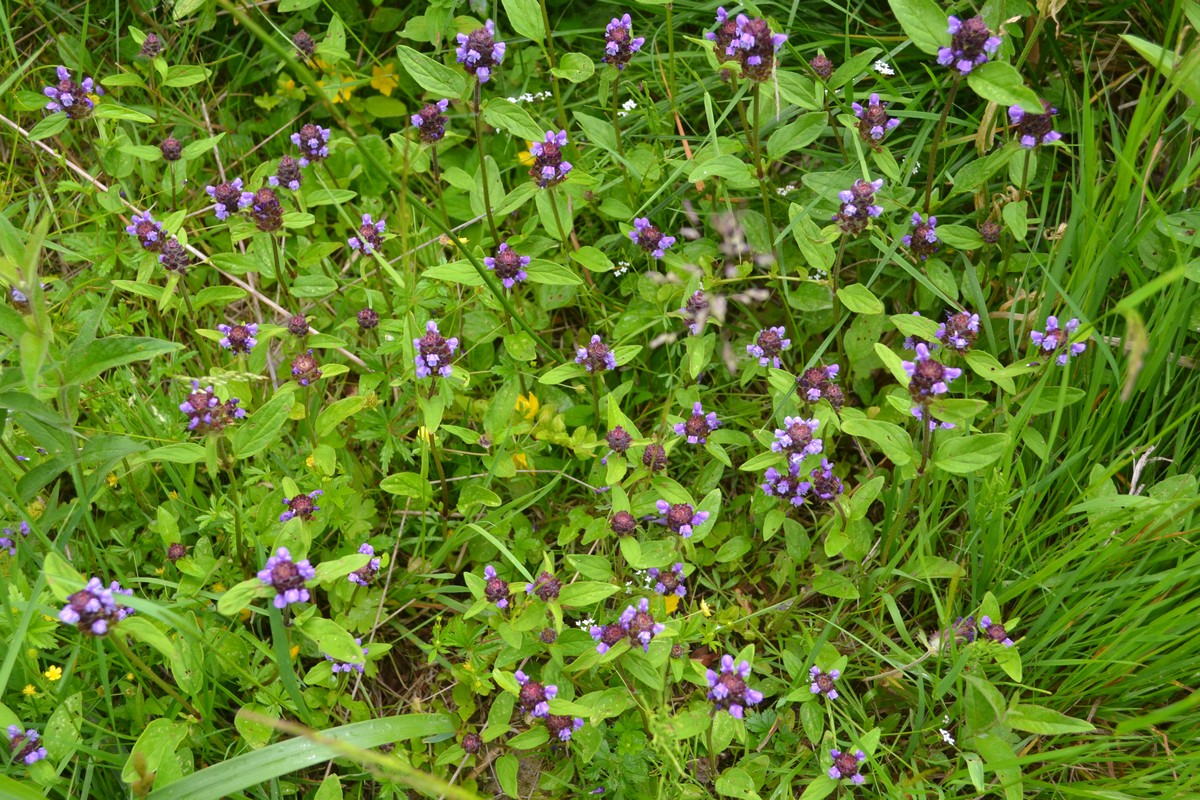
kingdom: Plantae
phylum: Tracheophyta
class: Magnoliopsida
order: Lamiales
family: Lamiaceae
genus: Prunella
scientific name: Prunella vulgaris
